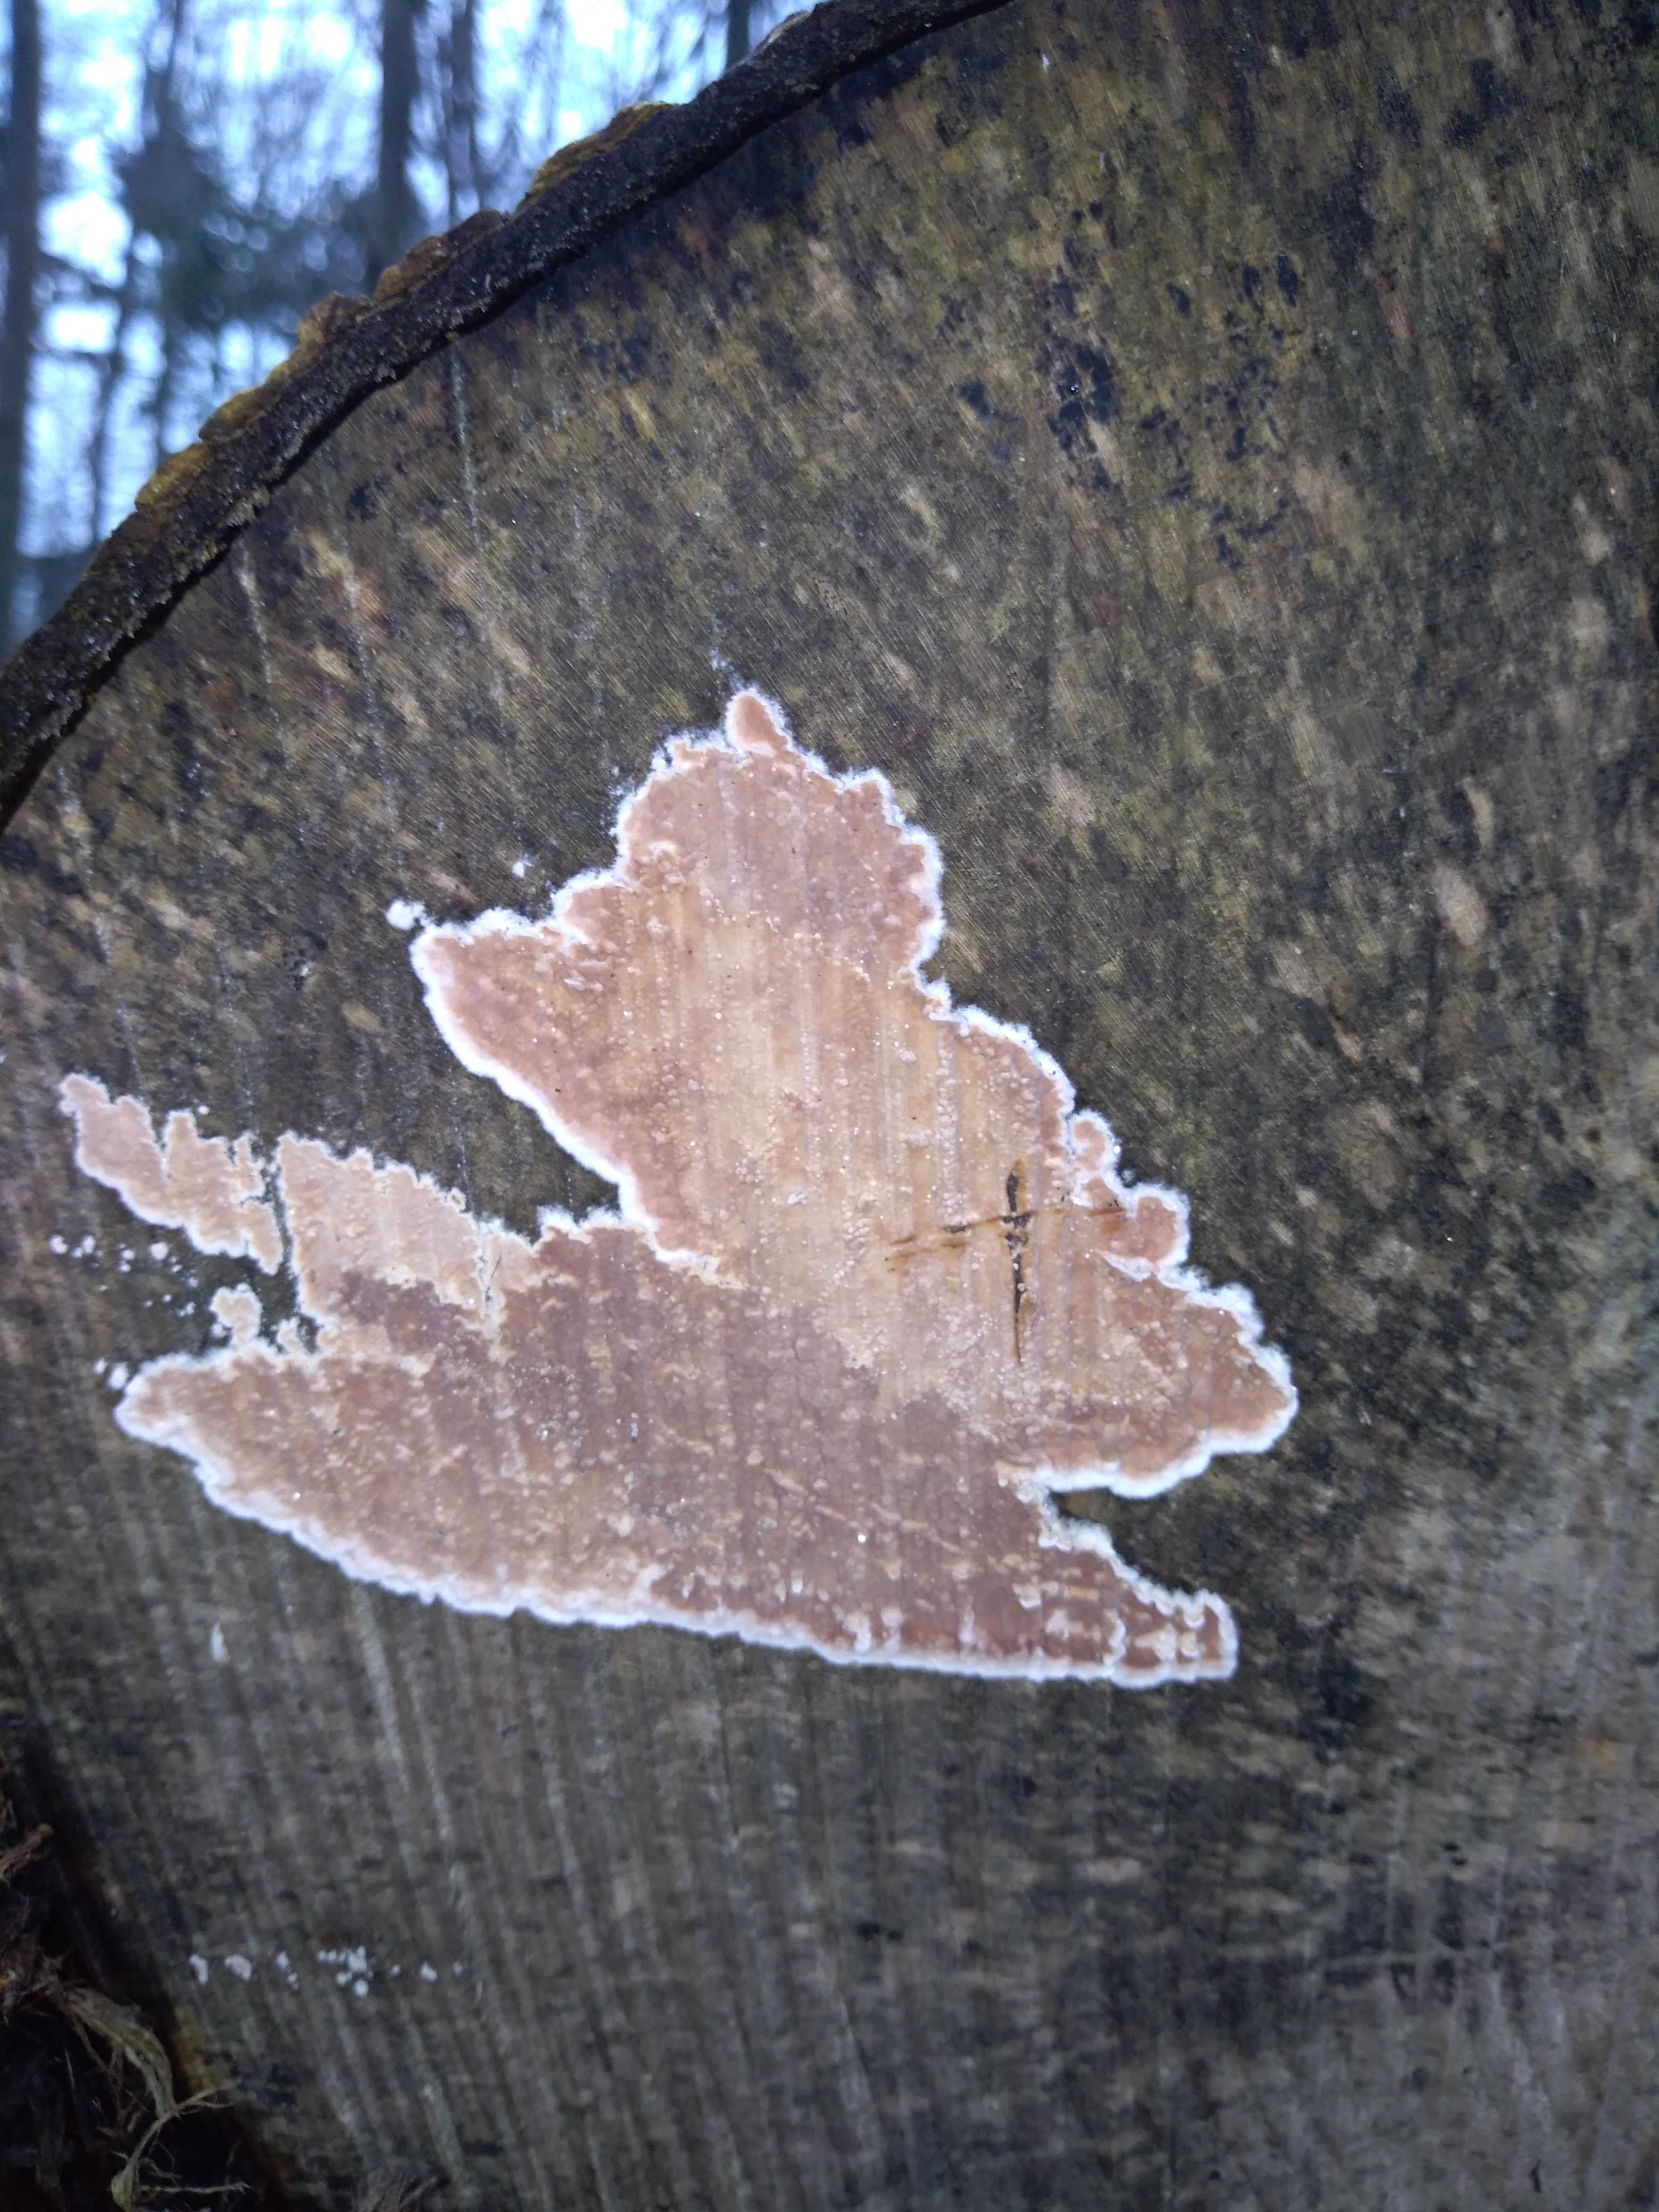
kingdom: Fungi
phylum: Basidiomycota
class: Agaricomycetes
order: Agaricales
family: Physalacriaceae
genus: Cylindrobasidium
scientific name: Cylindrobasidium evolvens
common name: sprækkehinde
